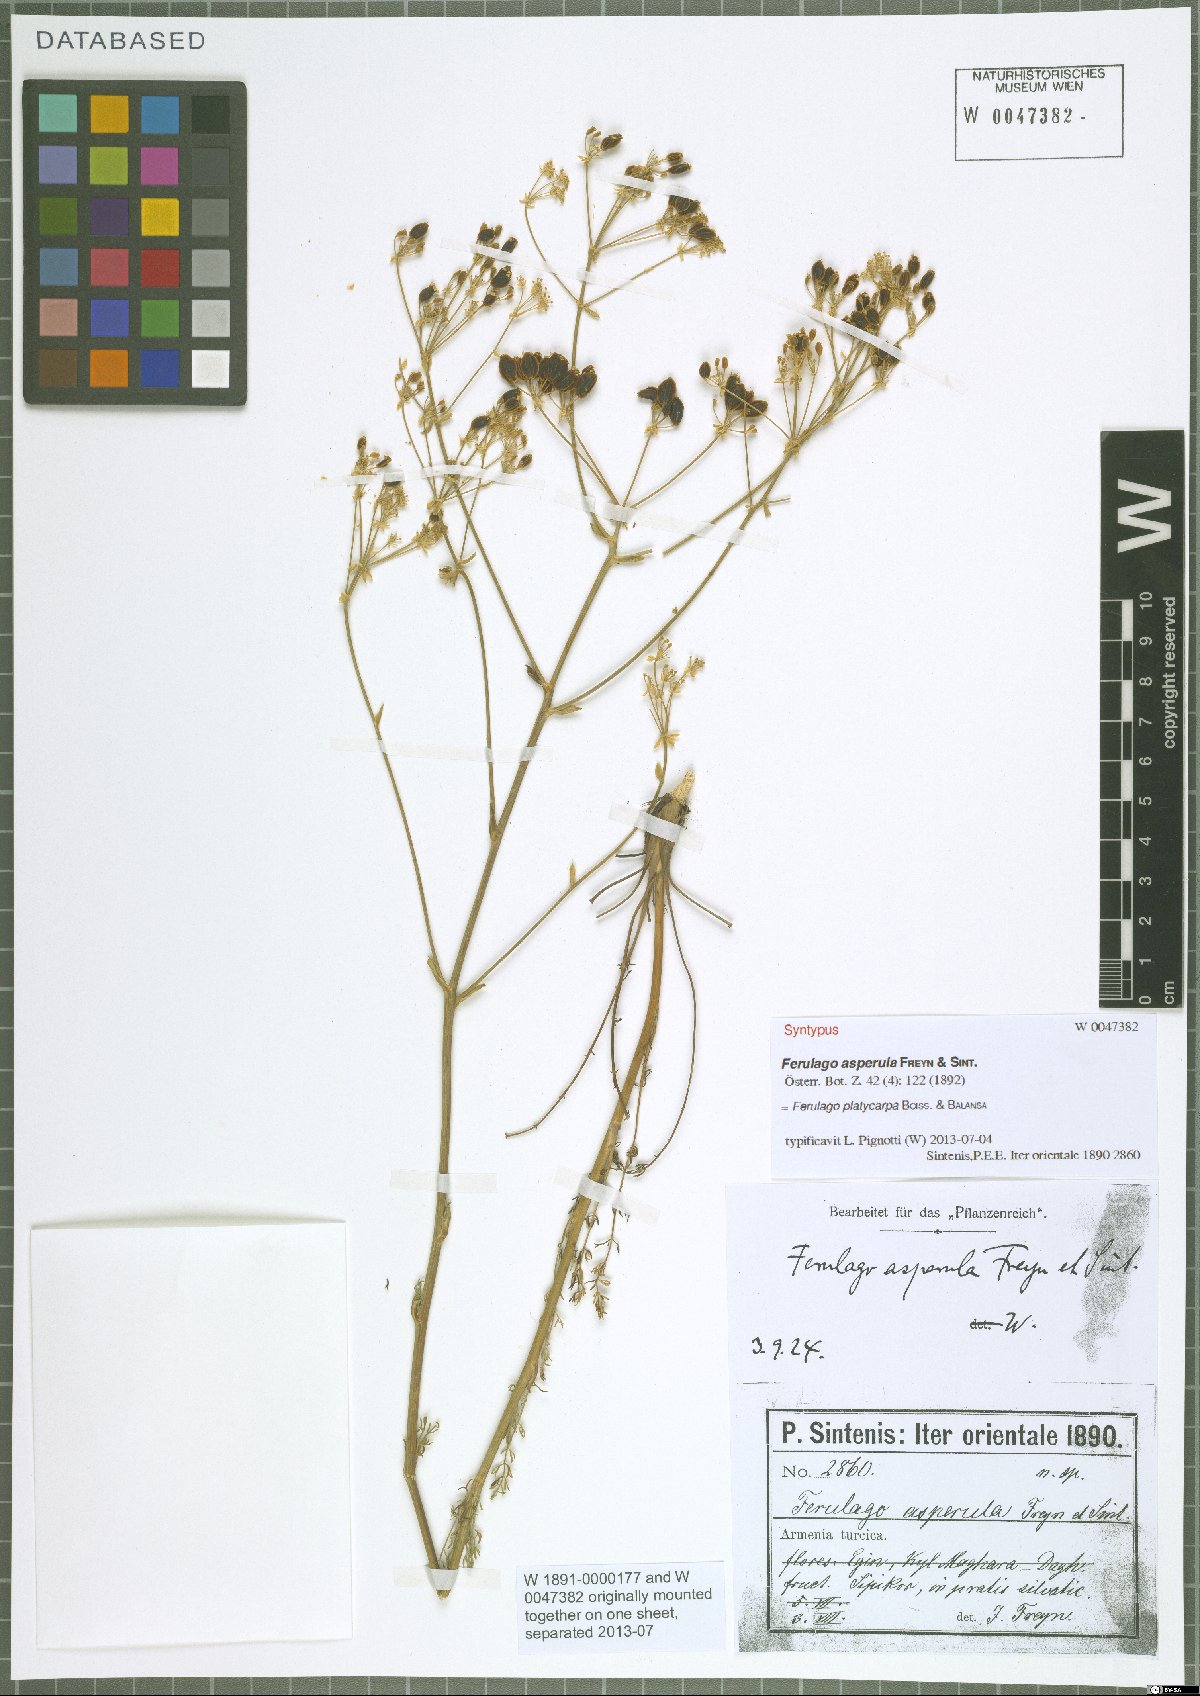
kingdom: Plantae
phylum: Tracheophyta
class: Magnoliopsida
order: Apiales
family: Apiaceae
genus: Ferulago
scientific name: Ferulago platycarpa
